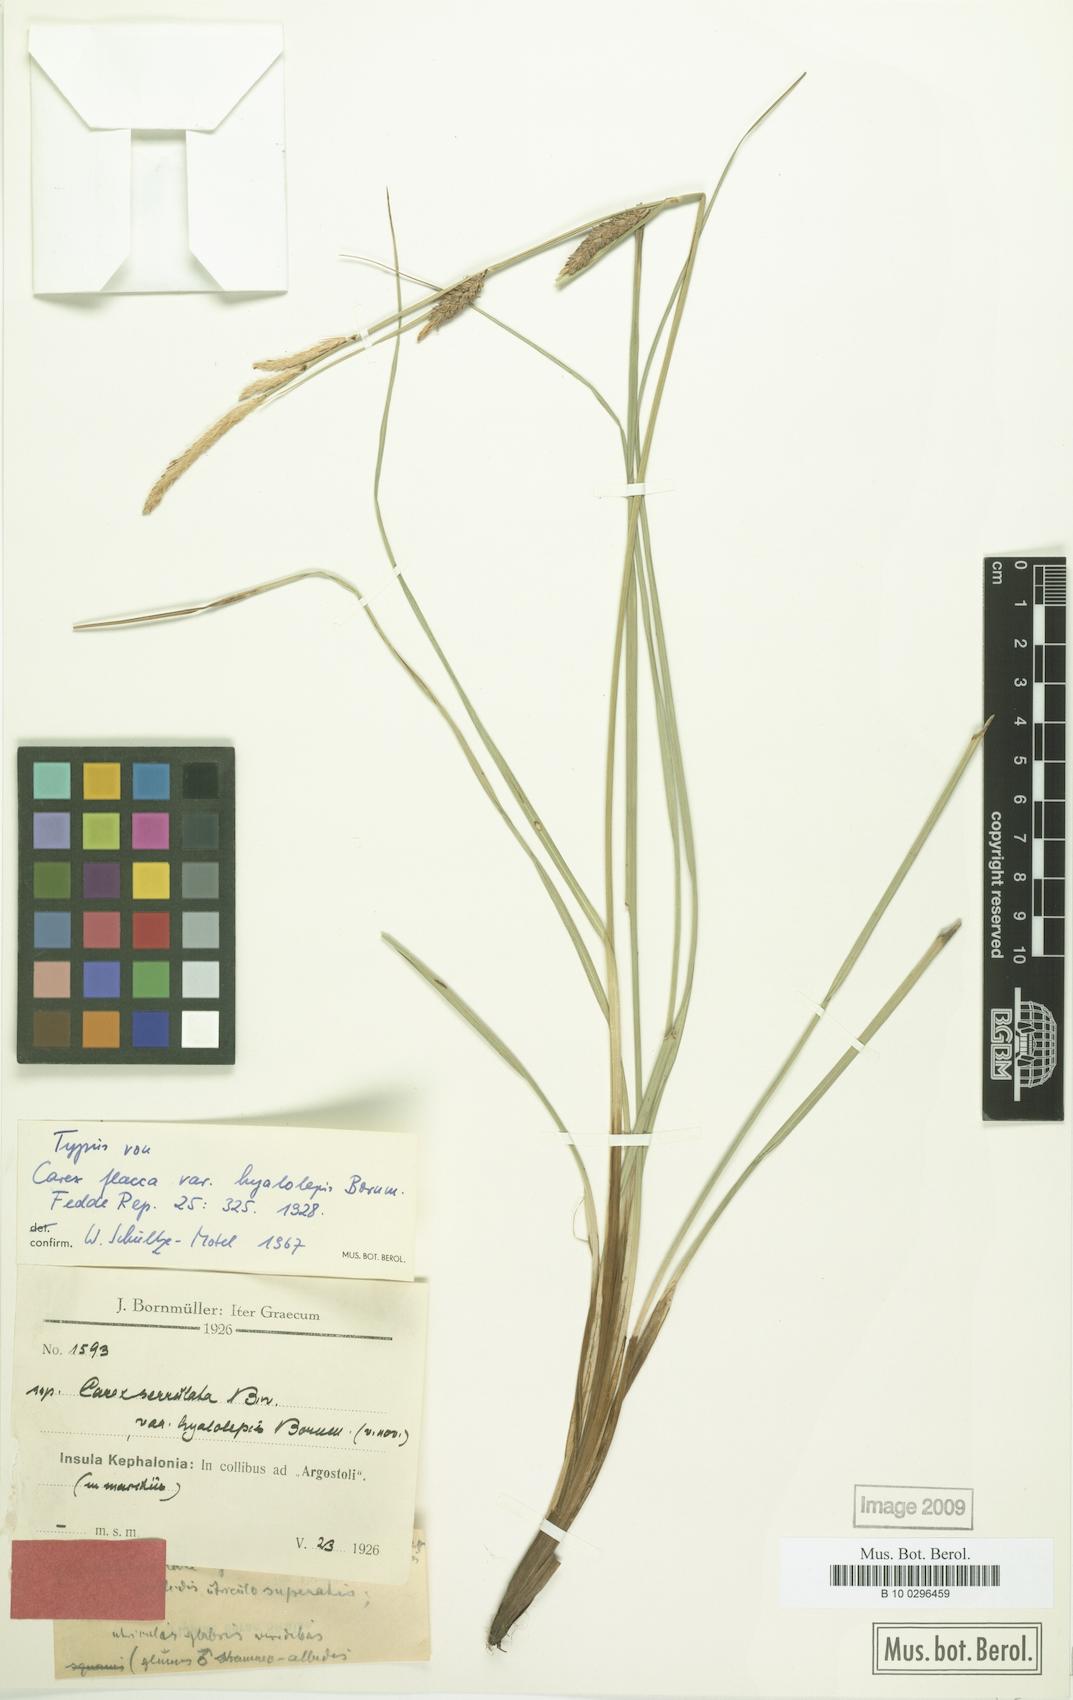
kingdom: Plantae
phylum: Tracheophyta
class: Liliopsida
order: Poales
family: Cyperaceae
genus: Carex
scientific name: Carex flacca
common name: Glaucous sedge
